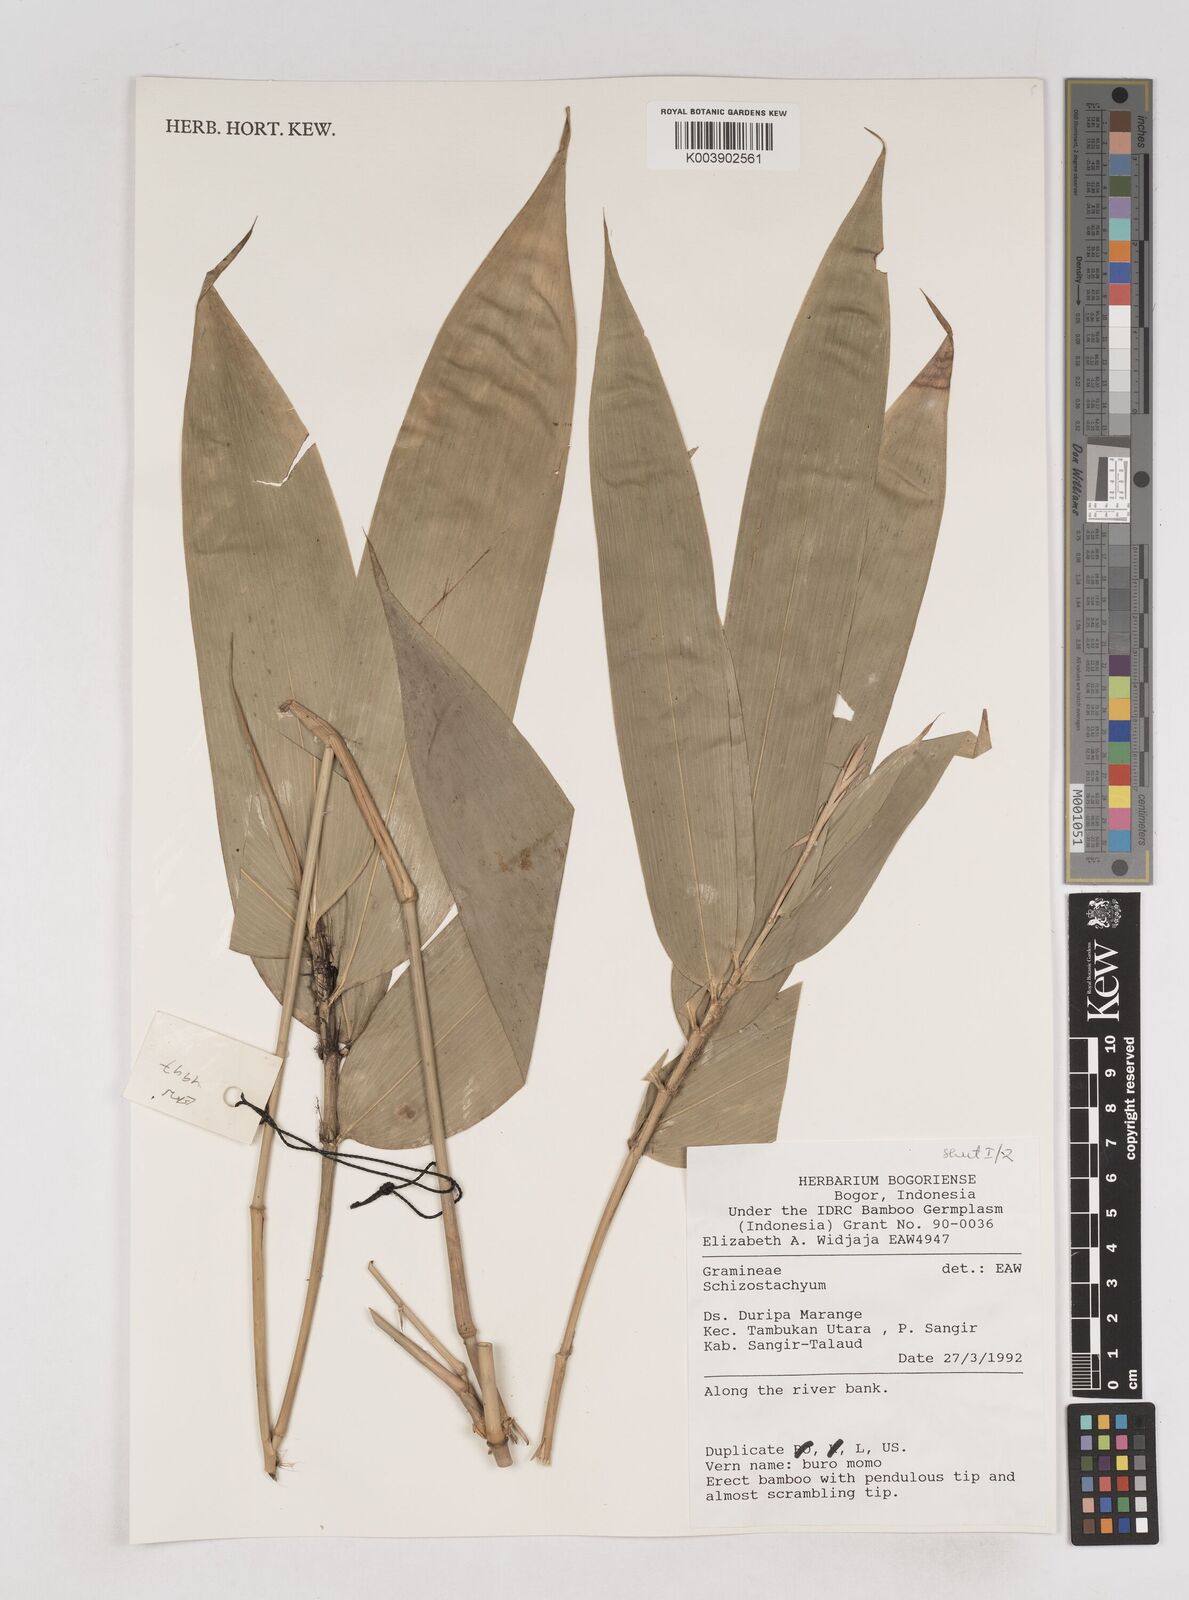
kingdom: Plantae
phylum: Tracheophyta
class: Liliopsida
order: Poales
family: Poaceae
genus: Schizostachyum
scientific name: Schizostachyum
